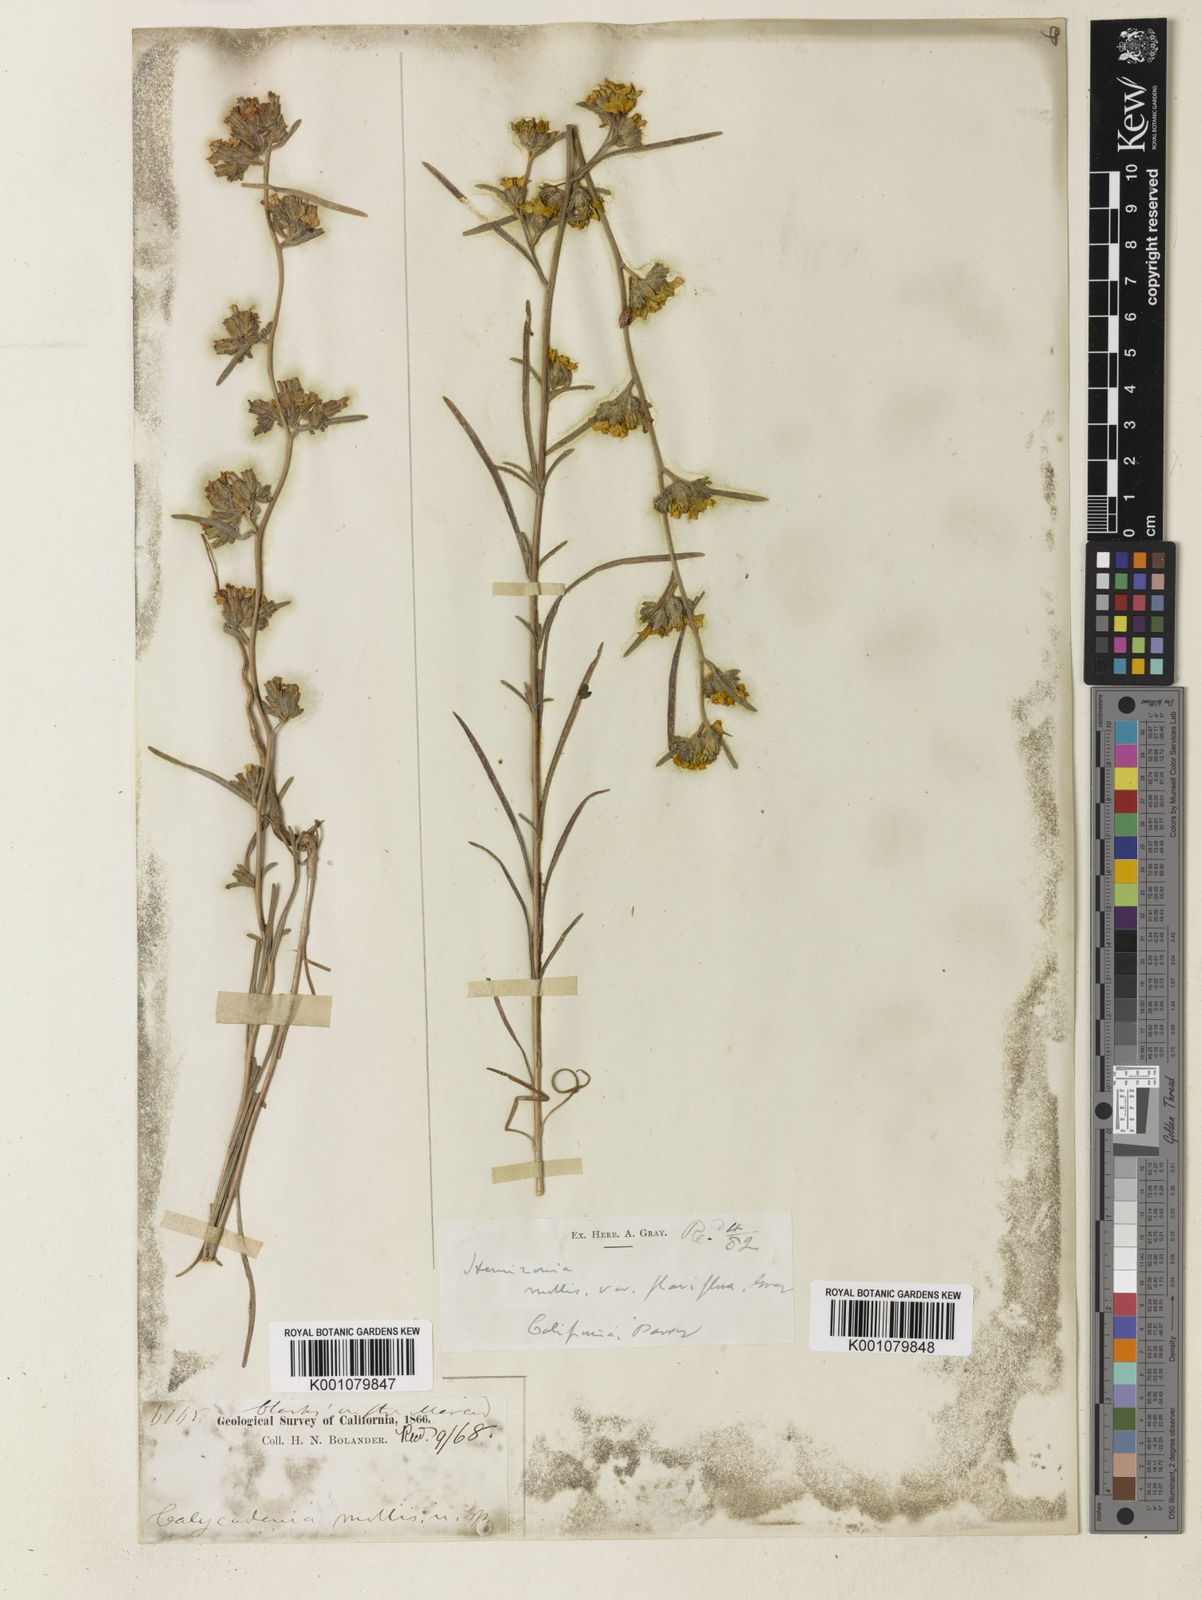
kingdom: Plantae
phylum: Tracheophyta
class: Magnoliopsida
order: Asterales
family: Asteraceae
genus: Calycadenia
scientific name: Calycadenia mollis
